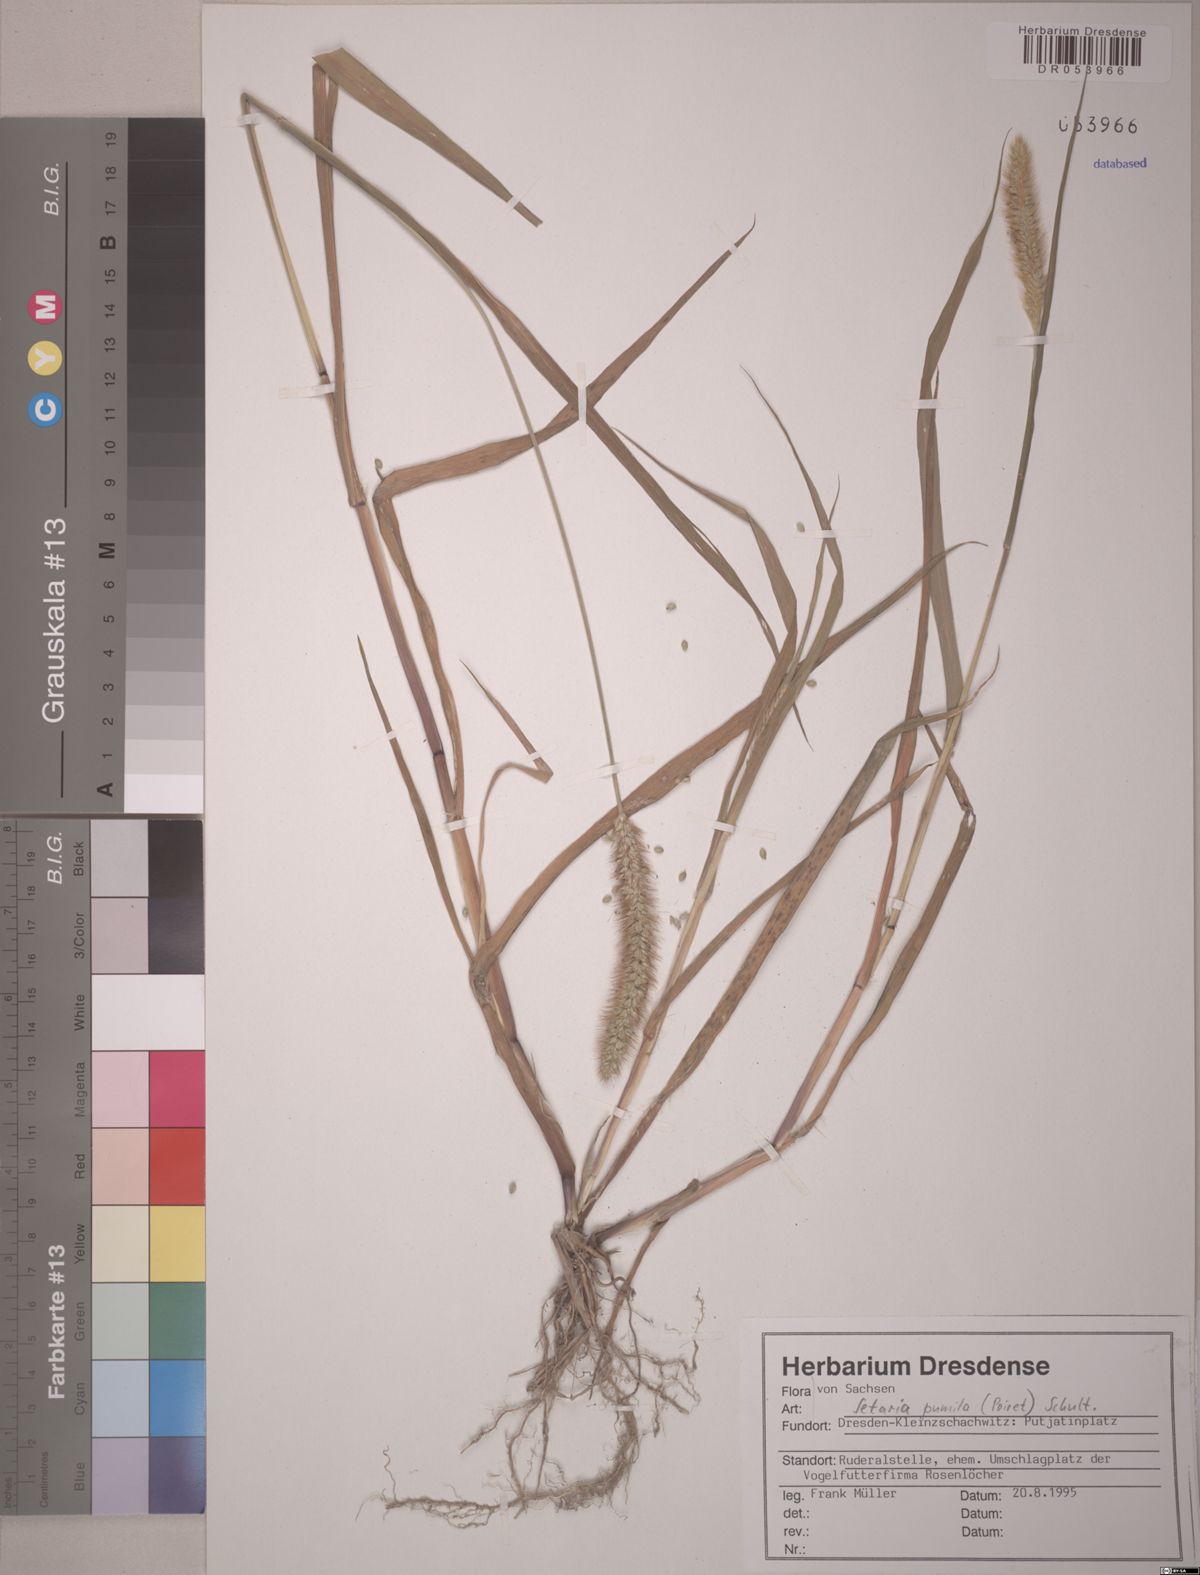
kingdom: Plantae
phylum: Tracheophyta
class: Liliopsida
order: Poales
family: Poaceae
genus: Setaria
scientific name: Setaria pumila
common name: Yellow bristle-grass
